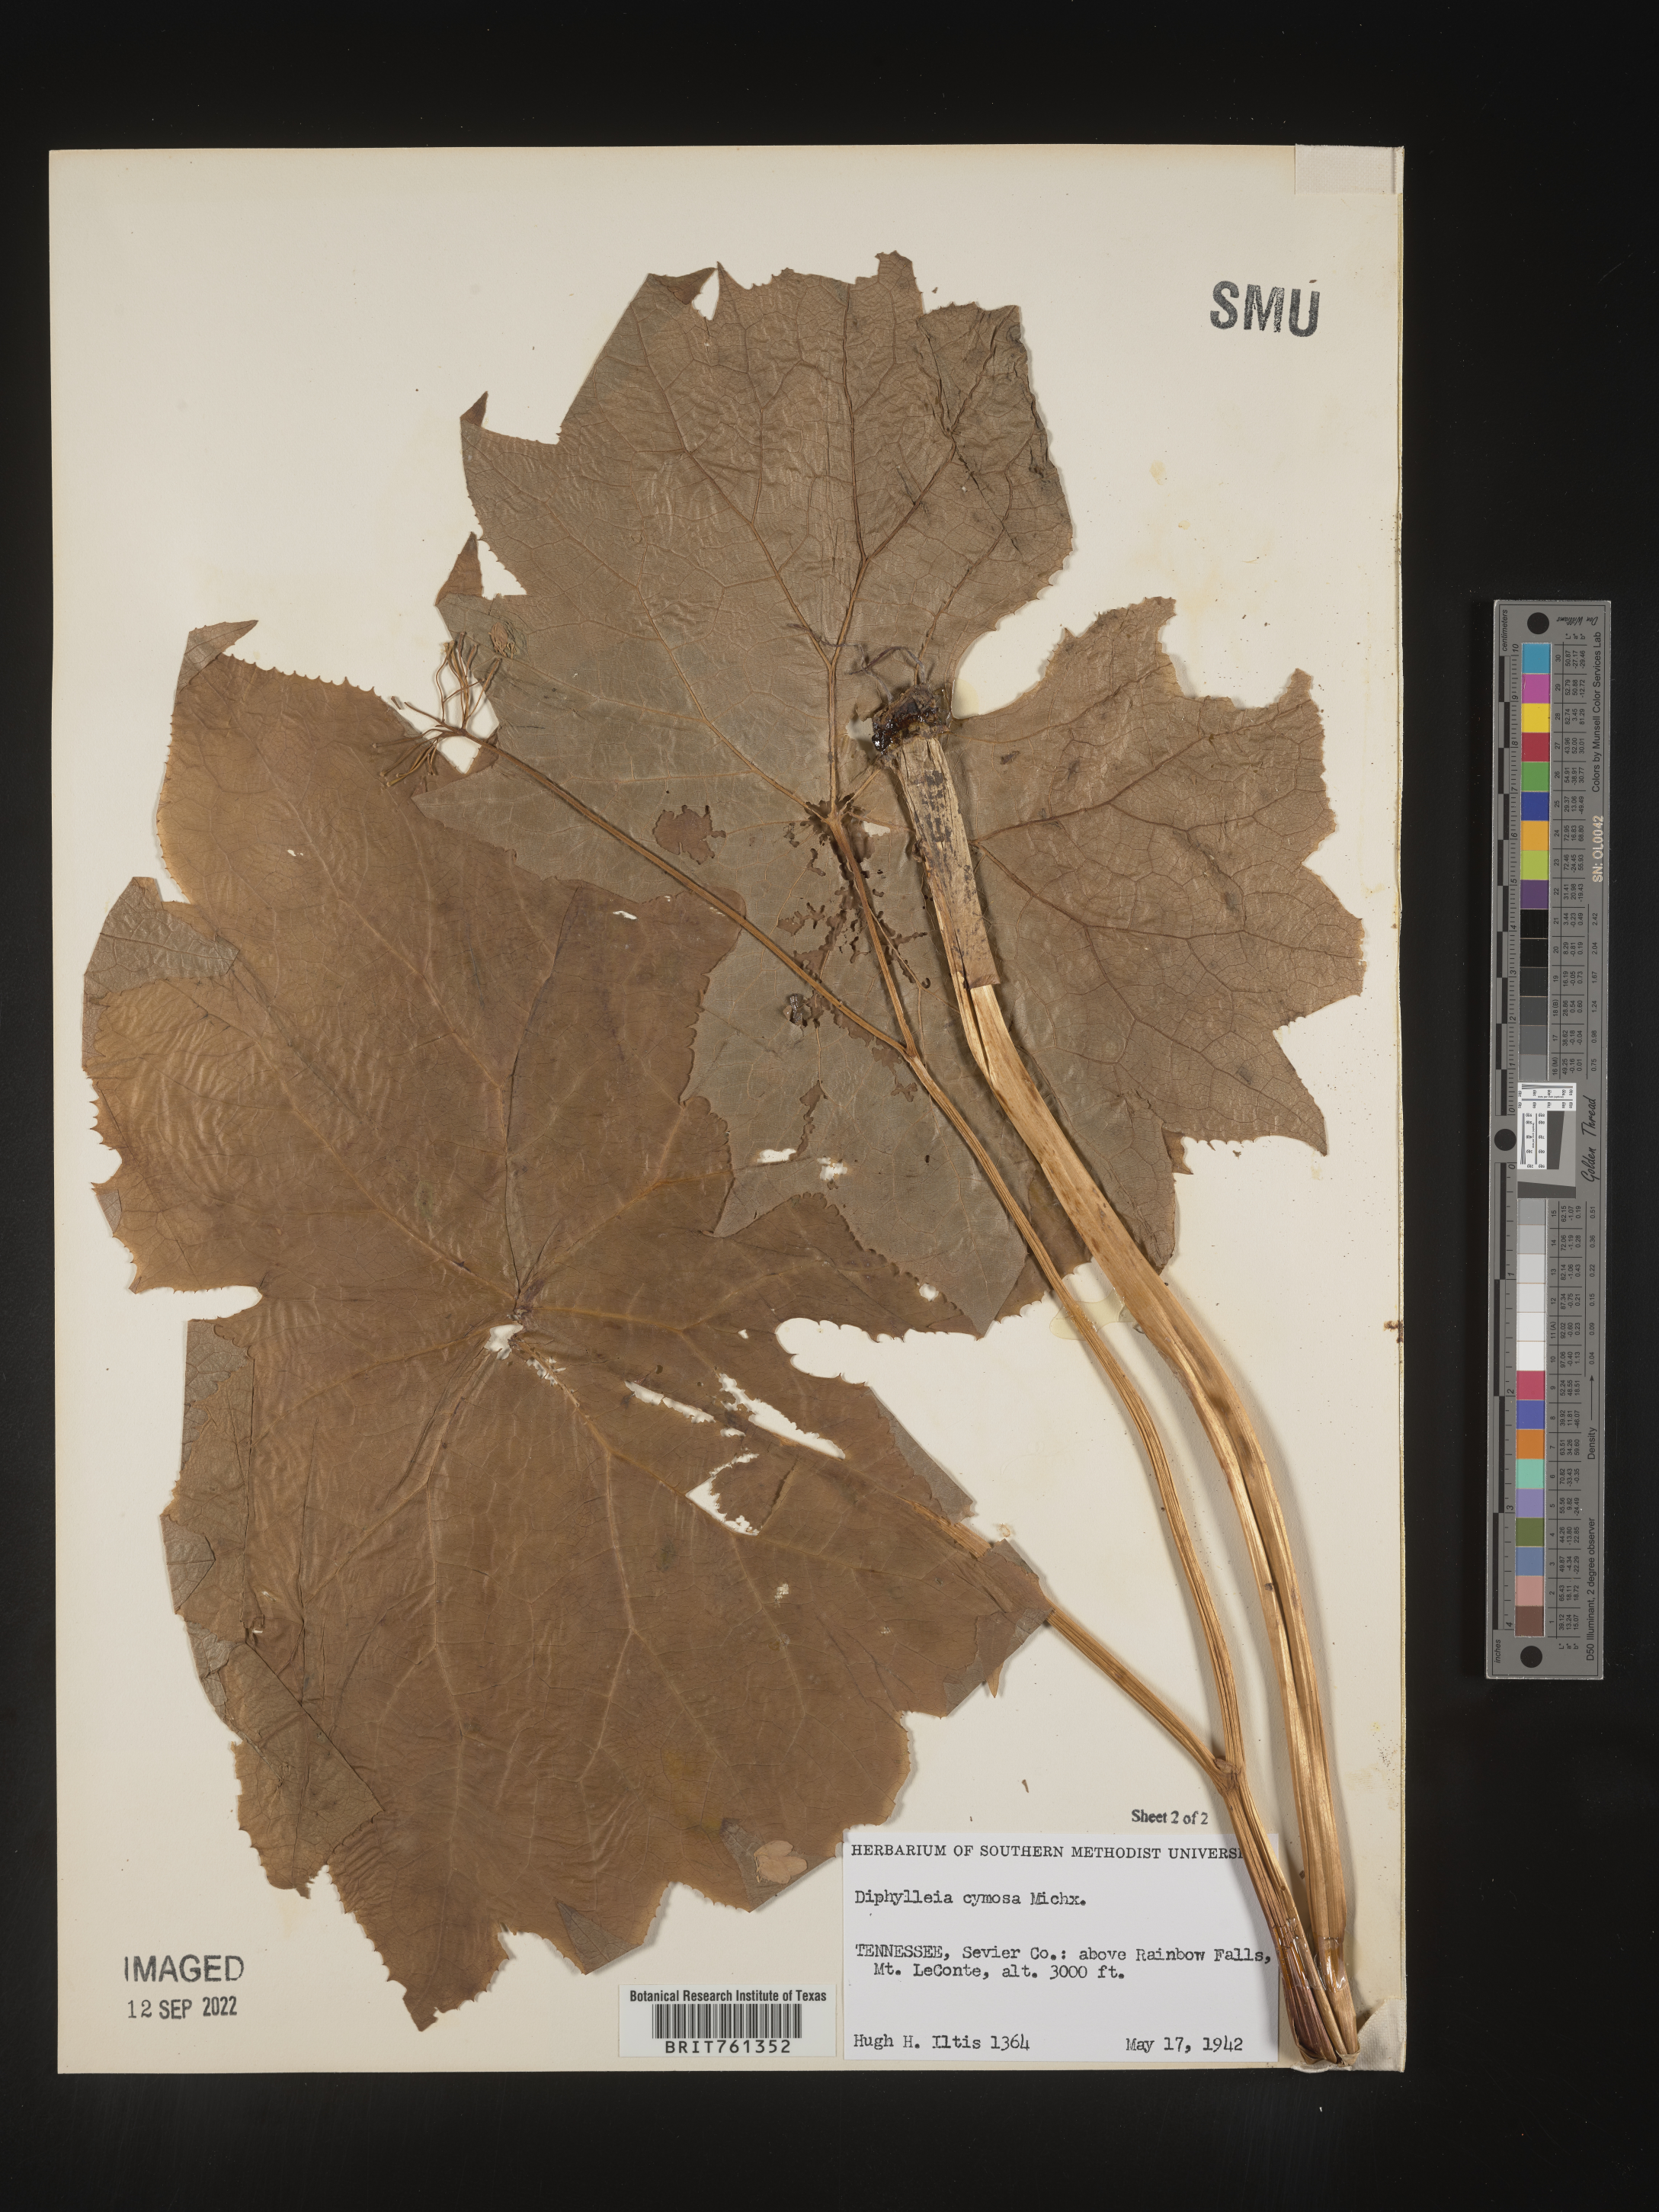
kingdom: Plantae
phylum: Tracheophyta
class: Magnoliopsida
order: Ranunculales
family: Berberidaceae
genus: Diphylleia
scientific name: Diphylleia
